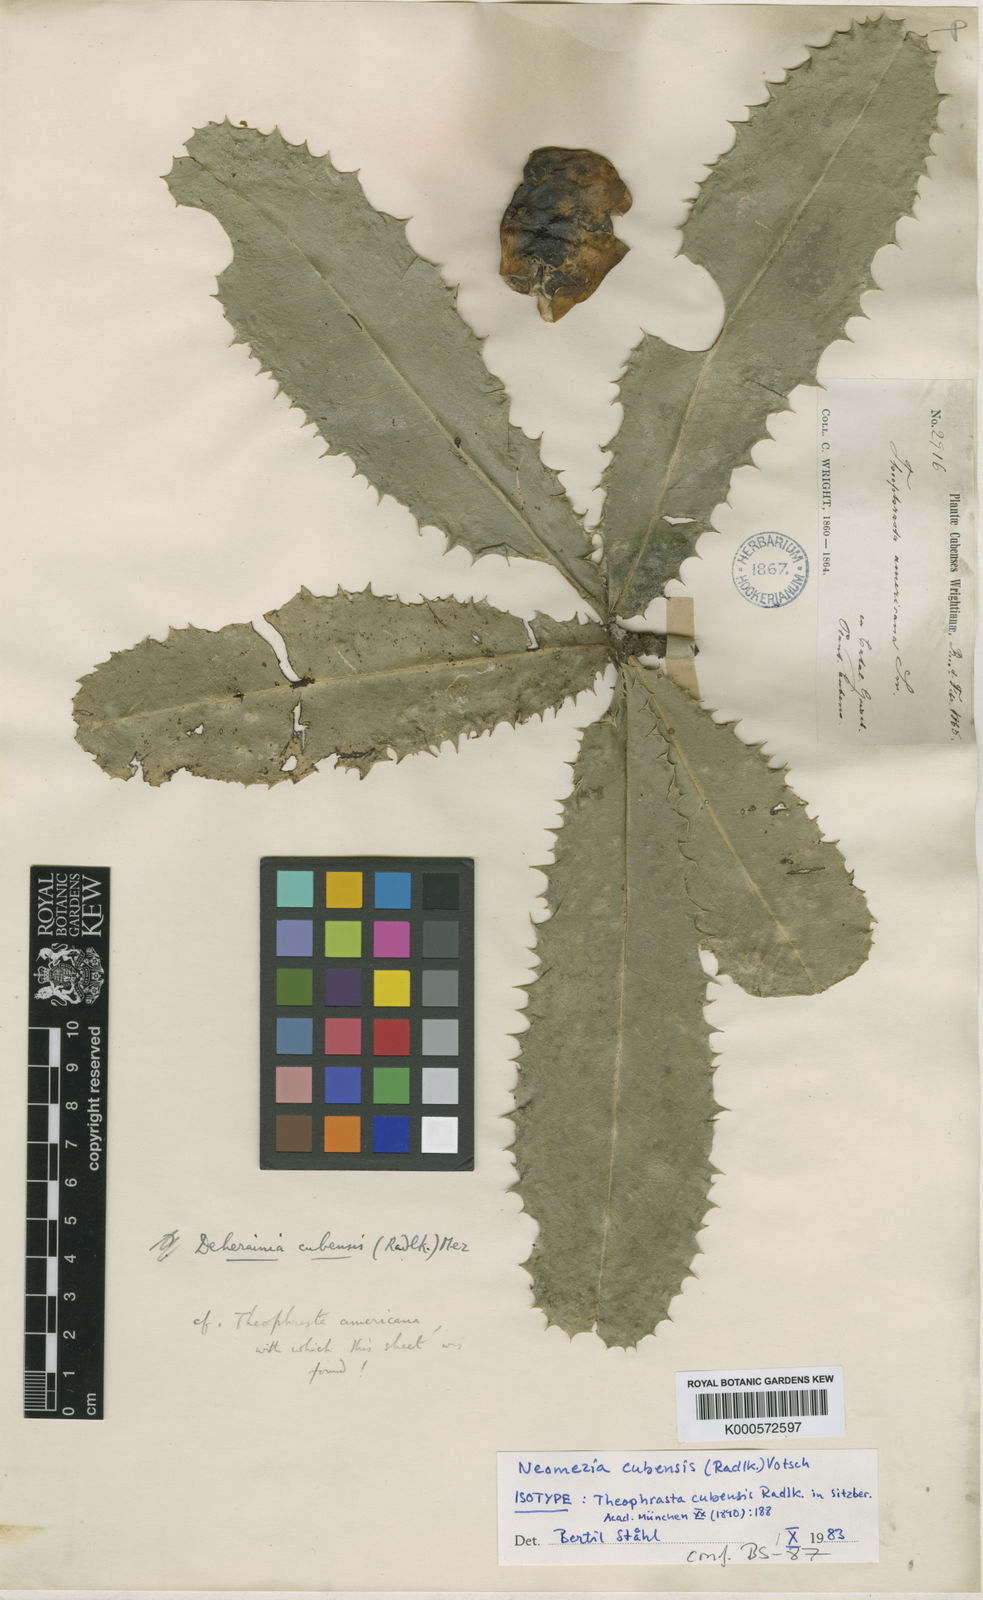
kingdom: Plantae
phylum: Tracheophyta
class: Magnoliopsida
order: Ericales
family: Primulaceae
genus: Neomezia
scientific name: Neomezia cubensis
